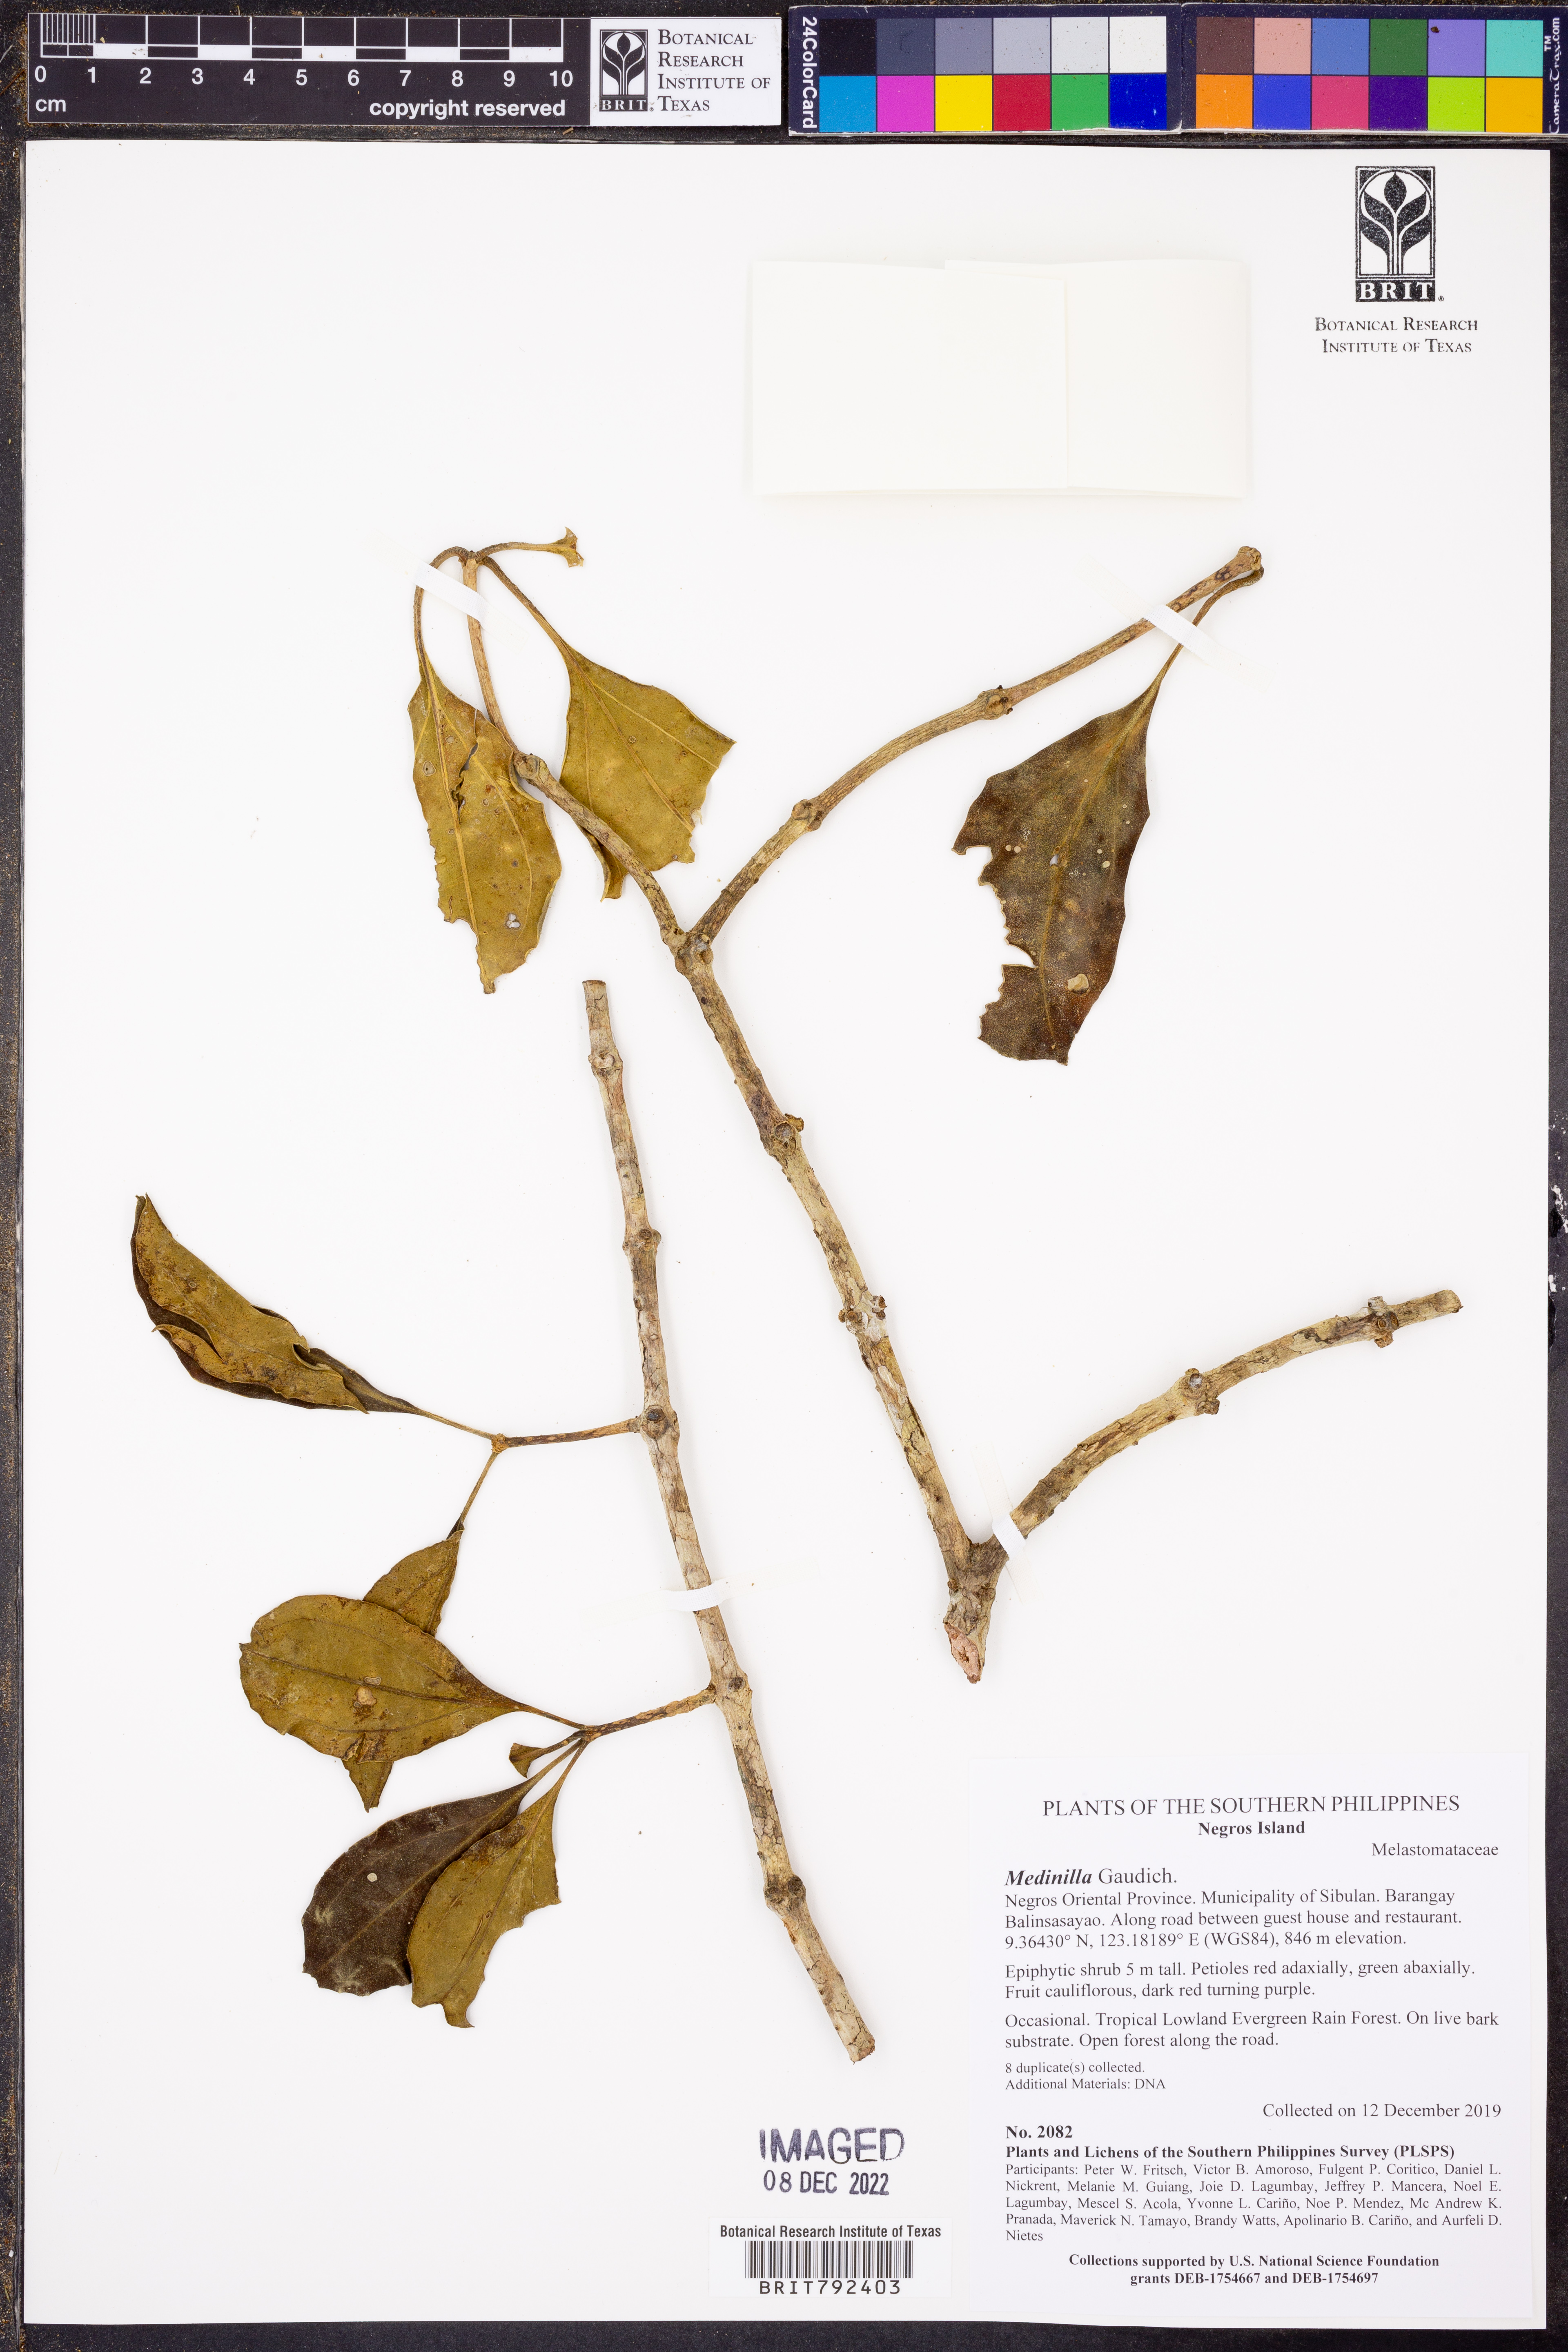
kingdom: Plantae
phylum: Tracheophyta
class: Magnoliopsida
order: Myrtales
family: Melastomataceae
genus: Medinilla
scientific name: Medinilla
